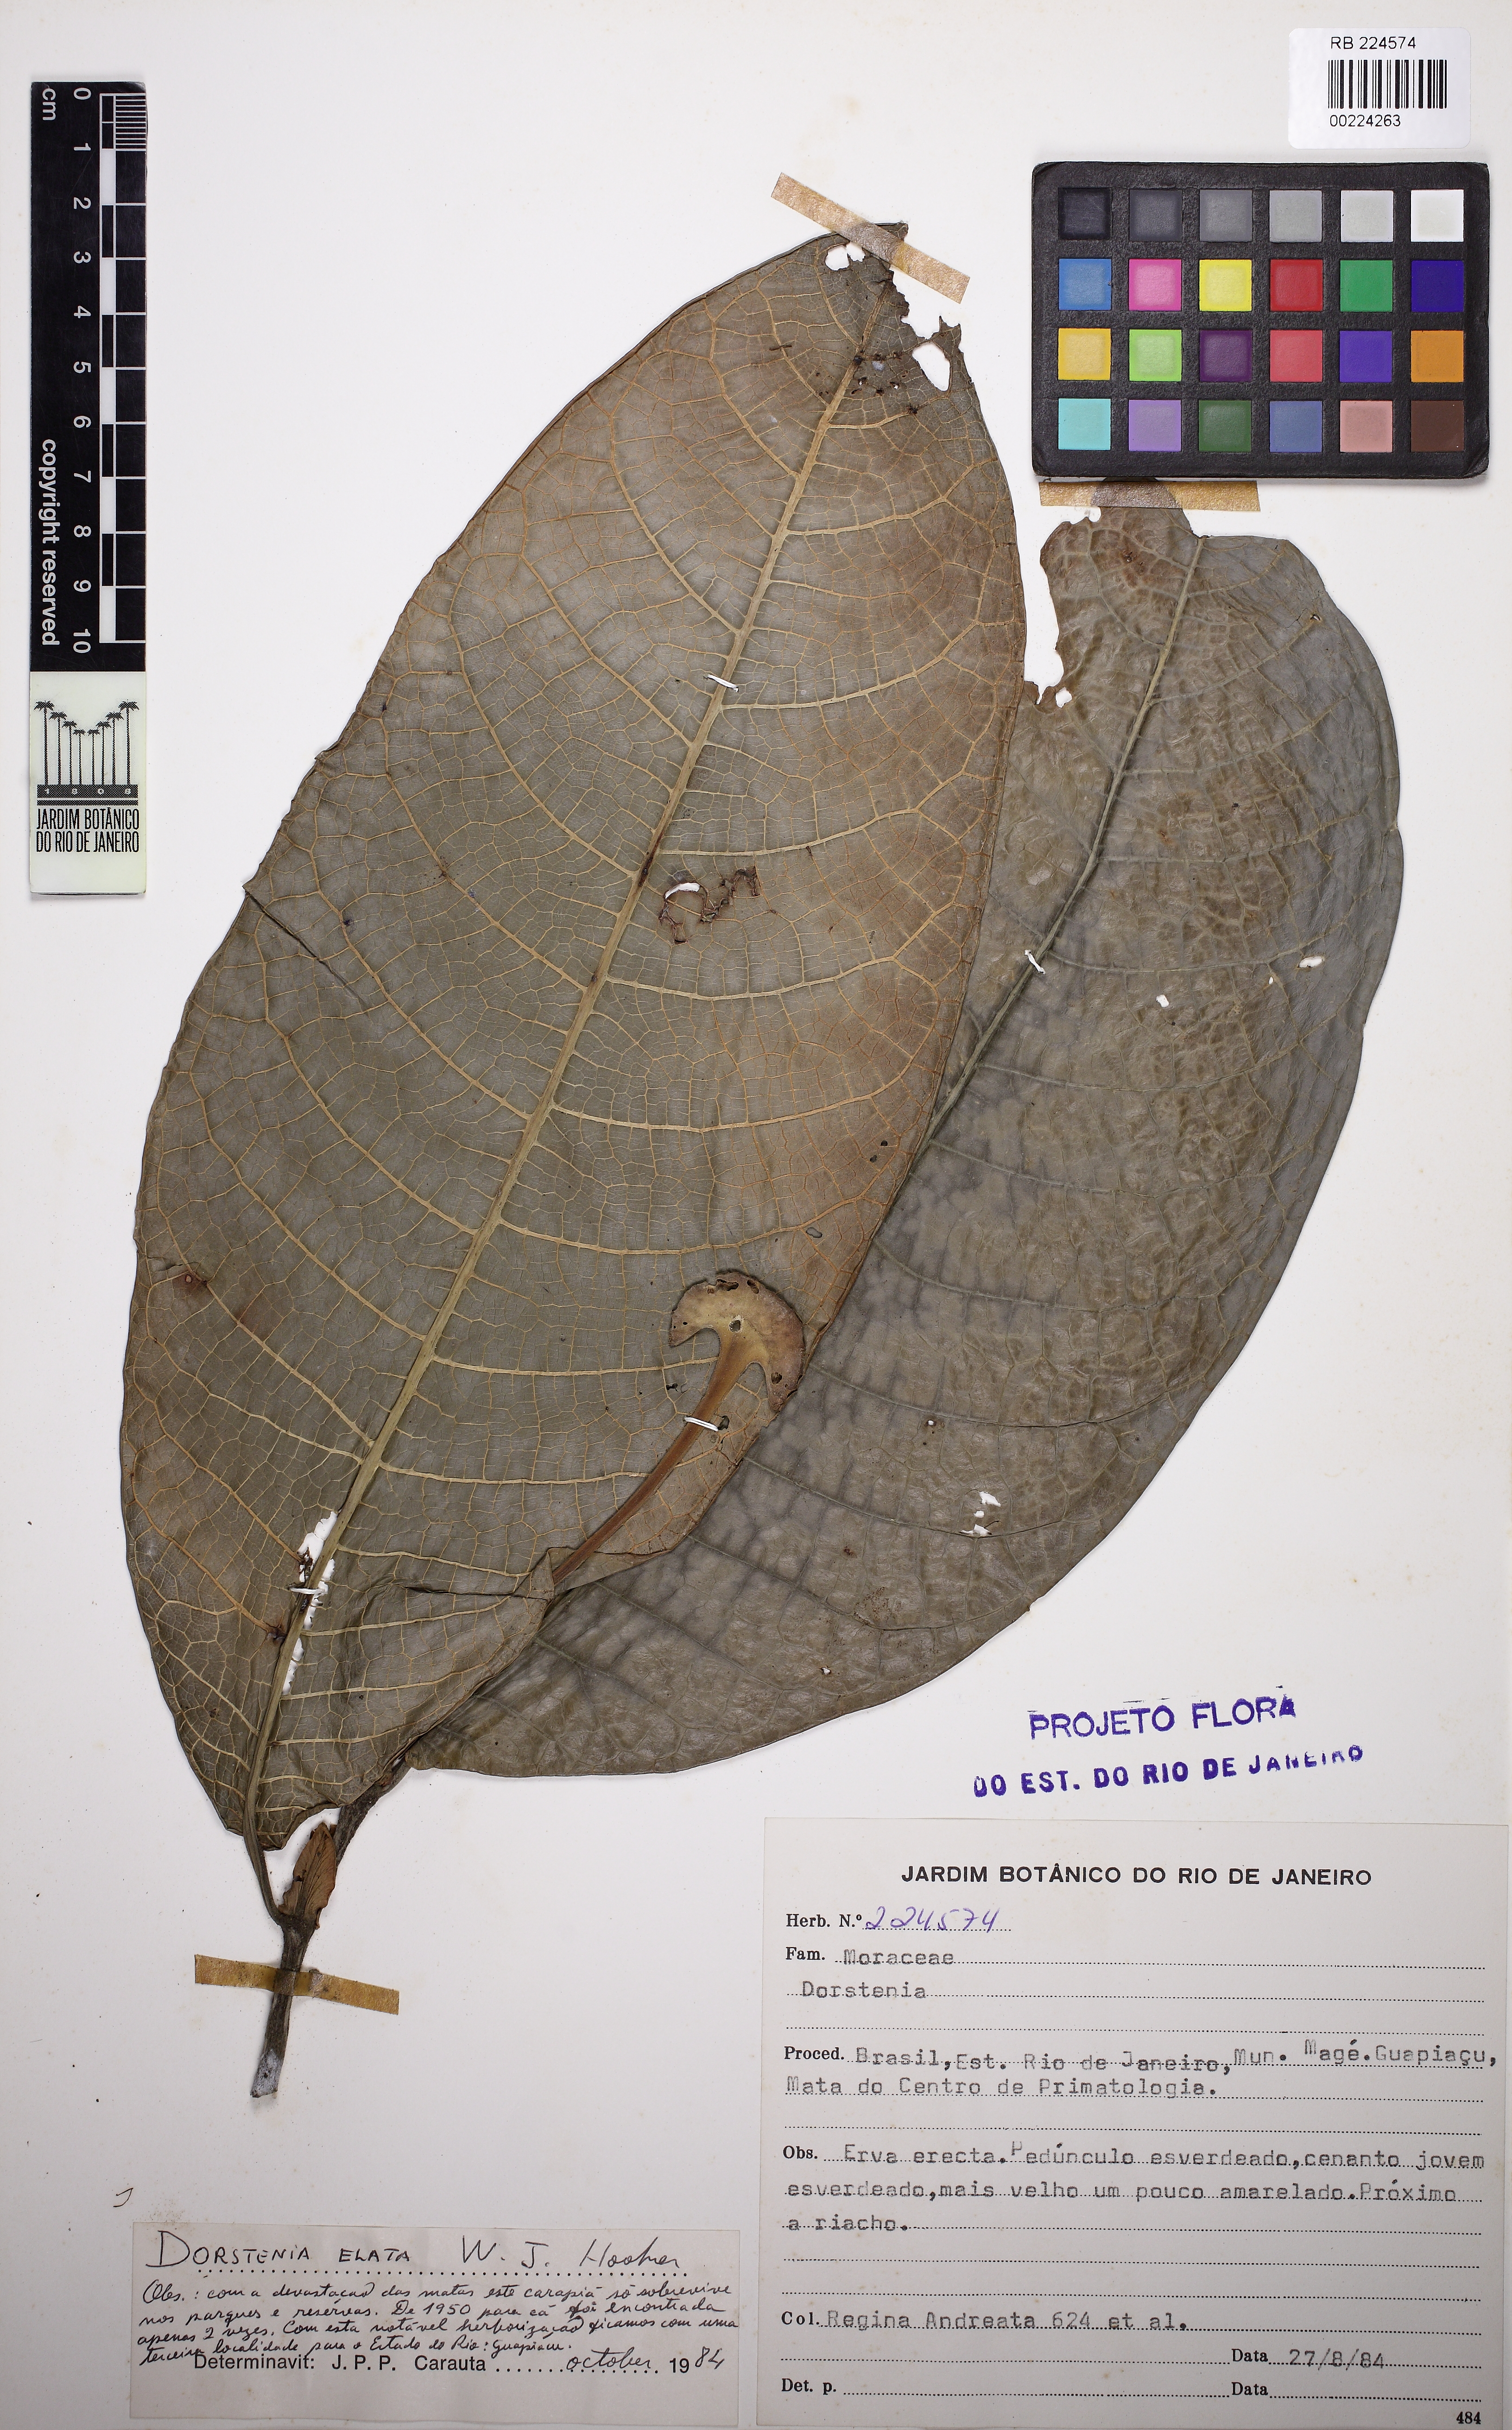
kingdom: Plantae
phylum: Tracheophyta
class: Magnoliopsida
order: Rosales
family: Moraceae
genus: Dorstenia
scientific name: Dorstenia elata
